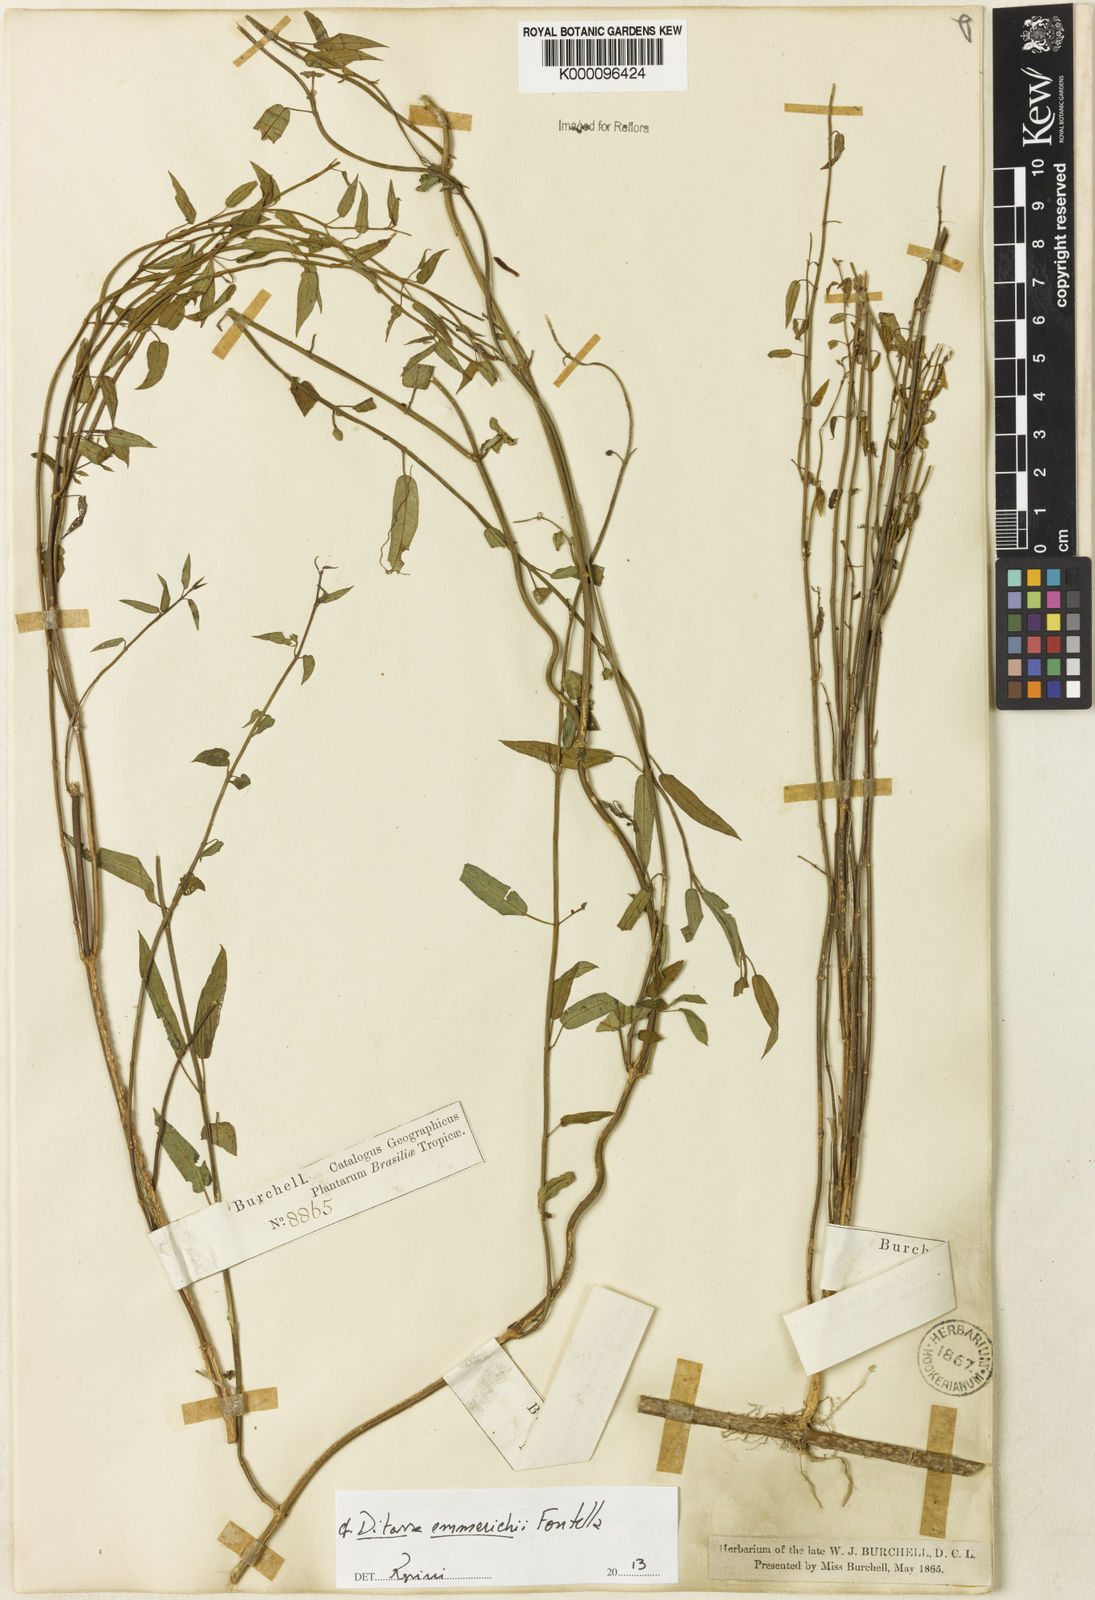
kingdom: Plantae
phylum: Tracheophyta
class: Magnoliopsida
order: Gentianales
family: Apocynaceae
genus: Ditassa
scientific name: Ditassa emmerichiae
